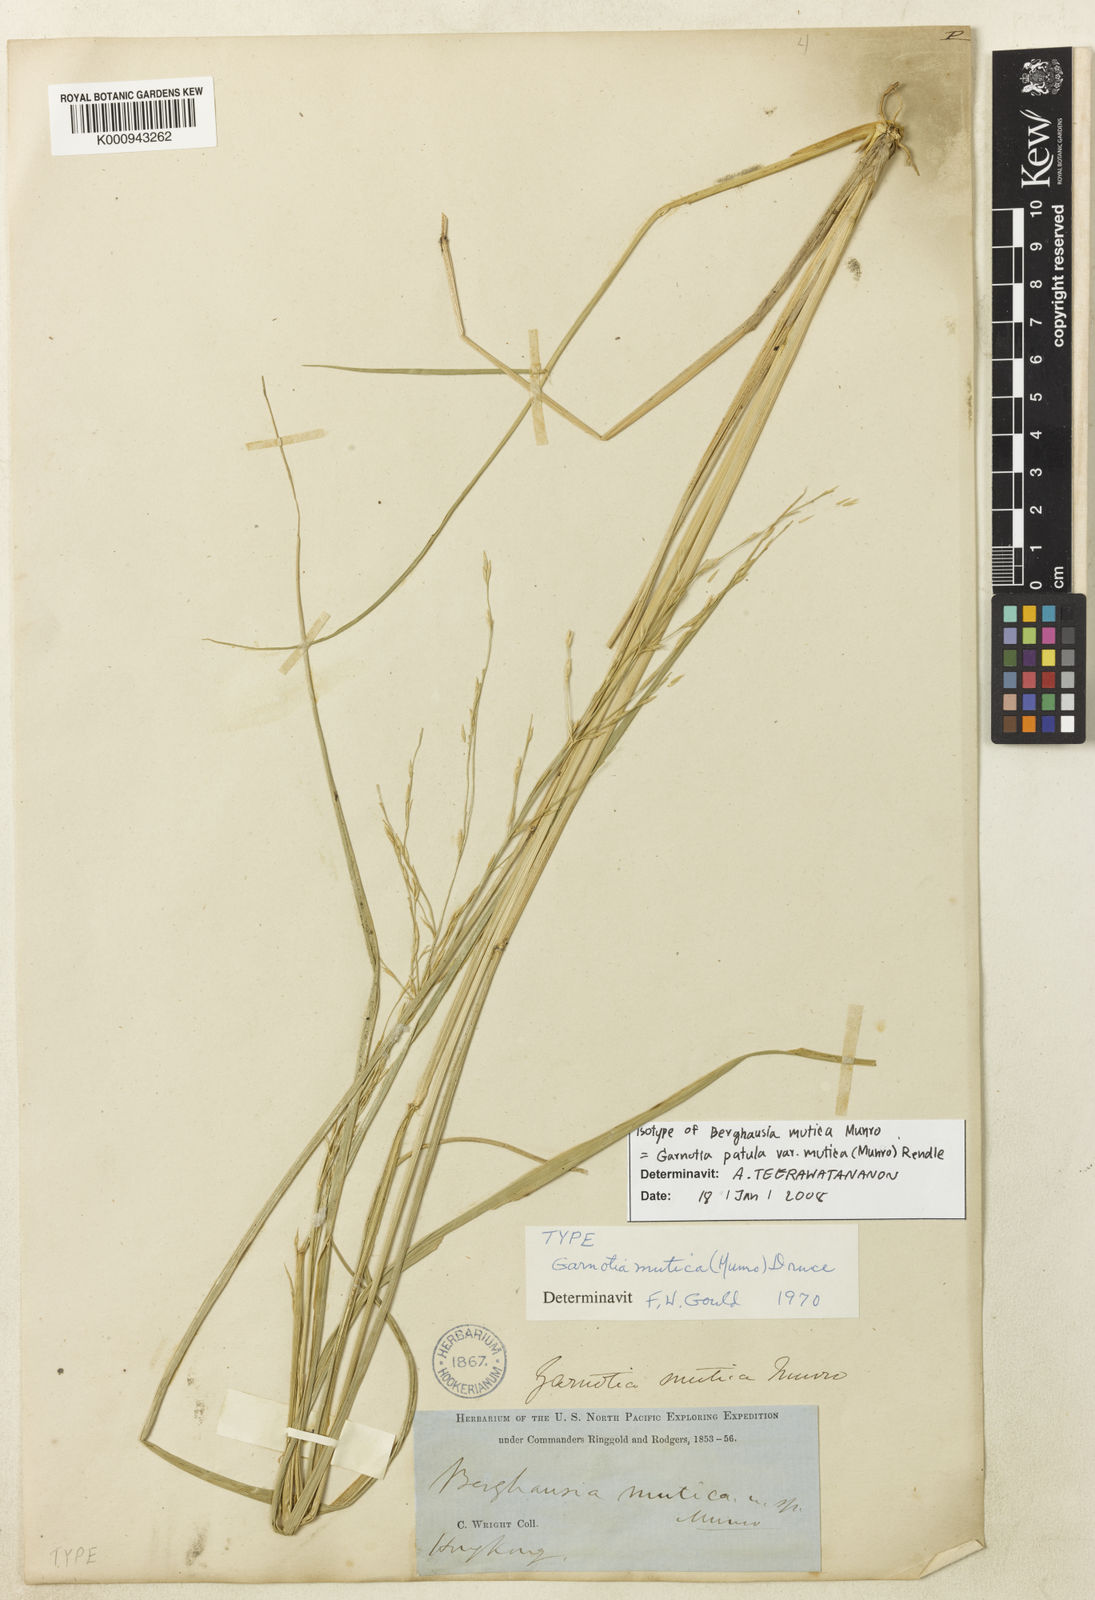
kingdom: Plantae
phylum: Tracheophyta
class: Liliopsida
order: Poales
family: Poaceae
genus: Garnotia
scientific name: Garnotia patula
